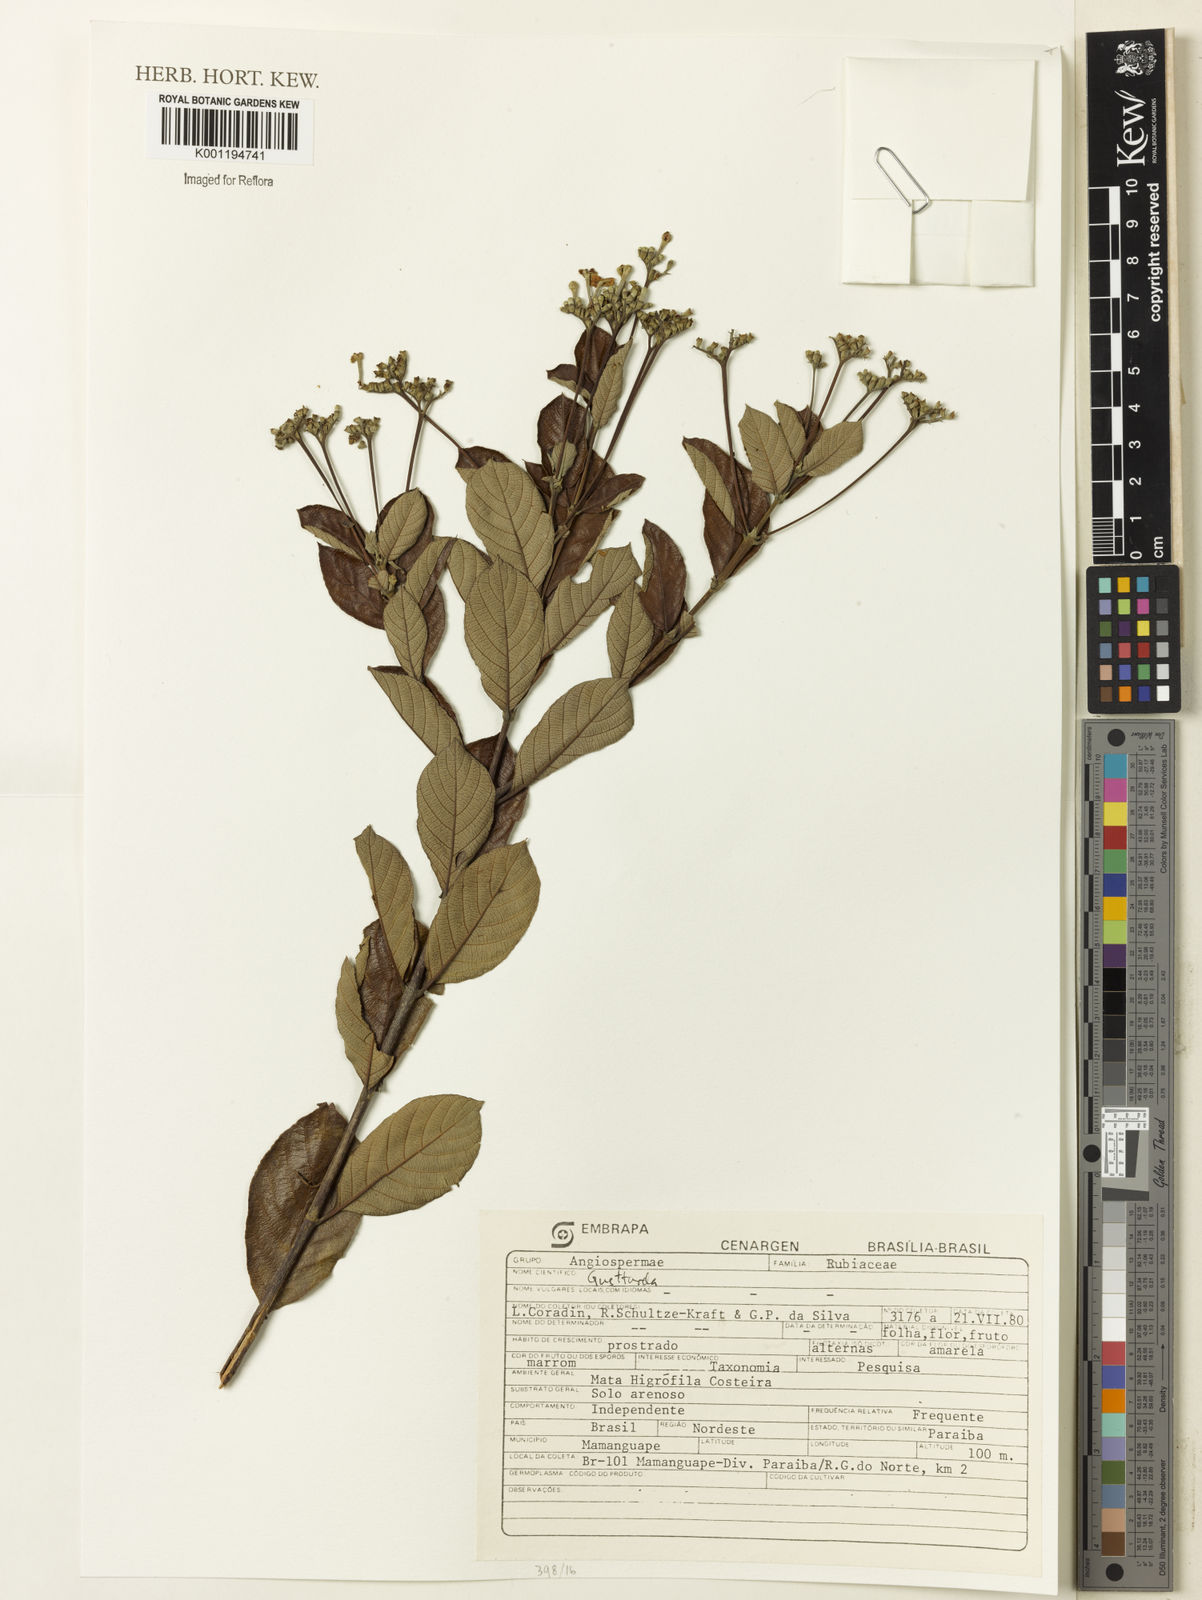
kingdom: Plantae
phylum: Tracheophyta
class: Magnoliopsida
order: Gentianales
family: Rubiaceae
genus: Guettarda
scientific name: Guettarda
